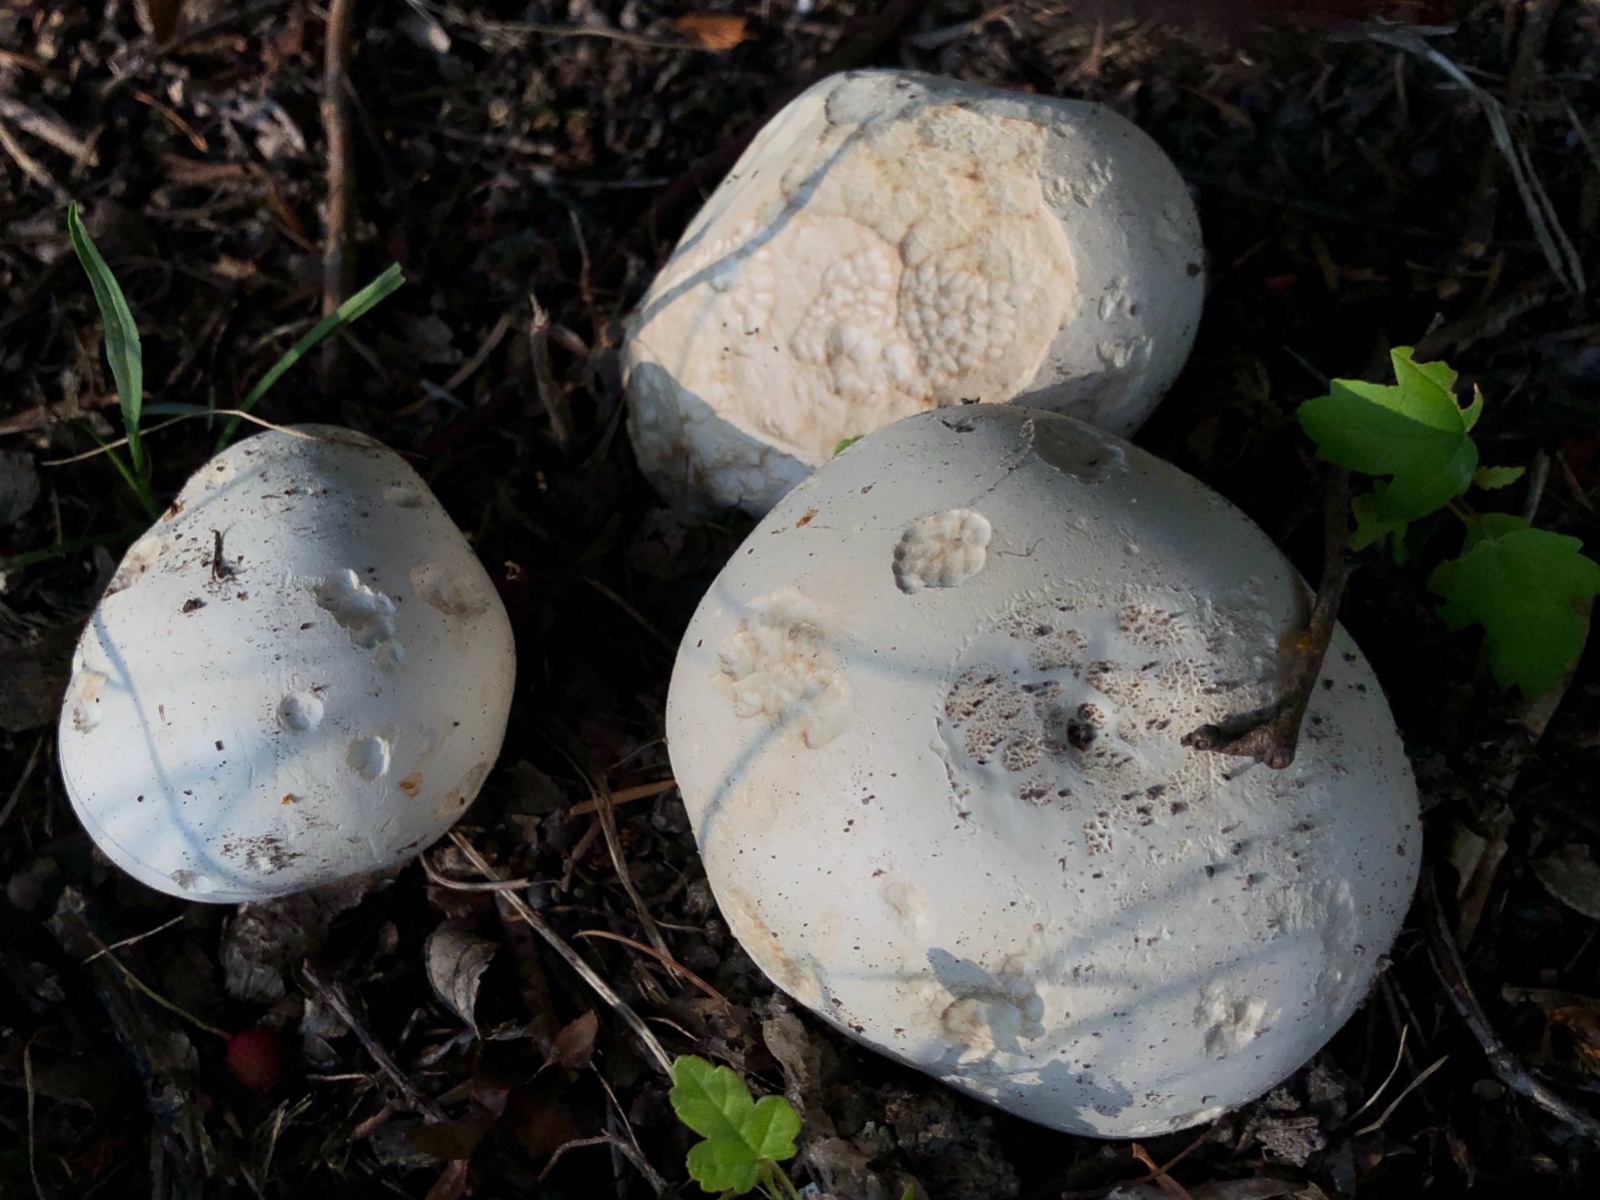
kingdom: Fungi
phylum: Basidiomycota
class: Agaricomycetes
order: Agaricales
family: Lycoperdaceae
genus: Calvatia
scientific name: Calvatia gigantea
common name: kæmpestøvbold
